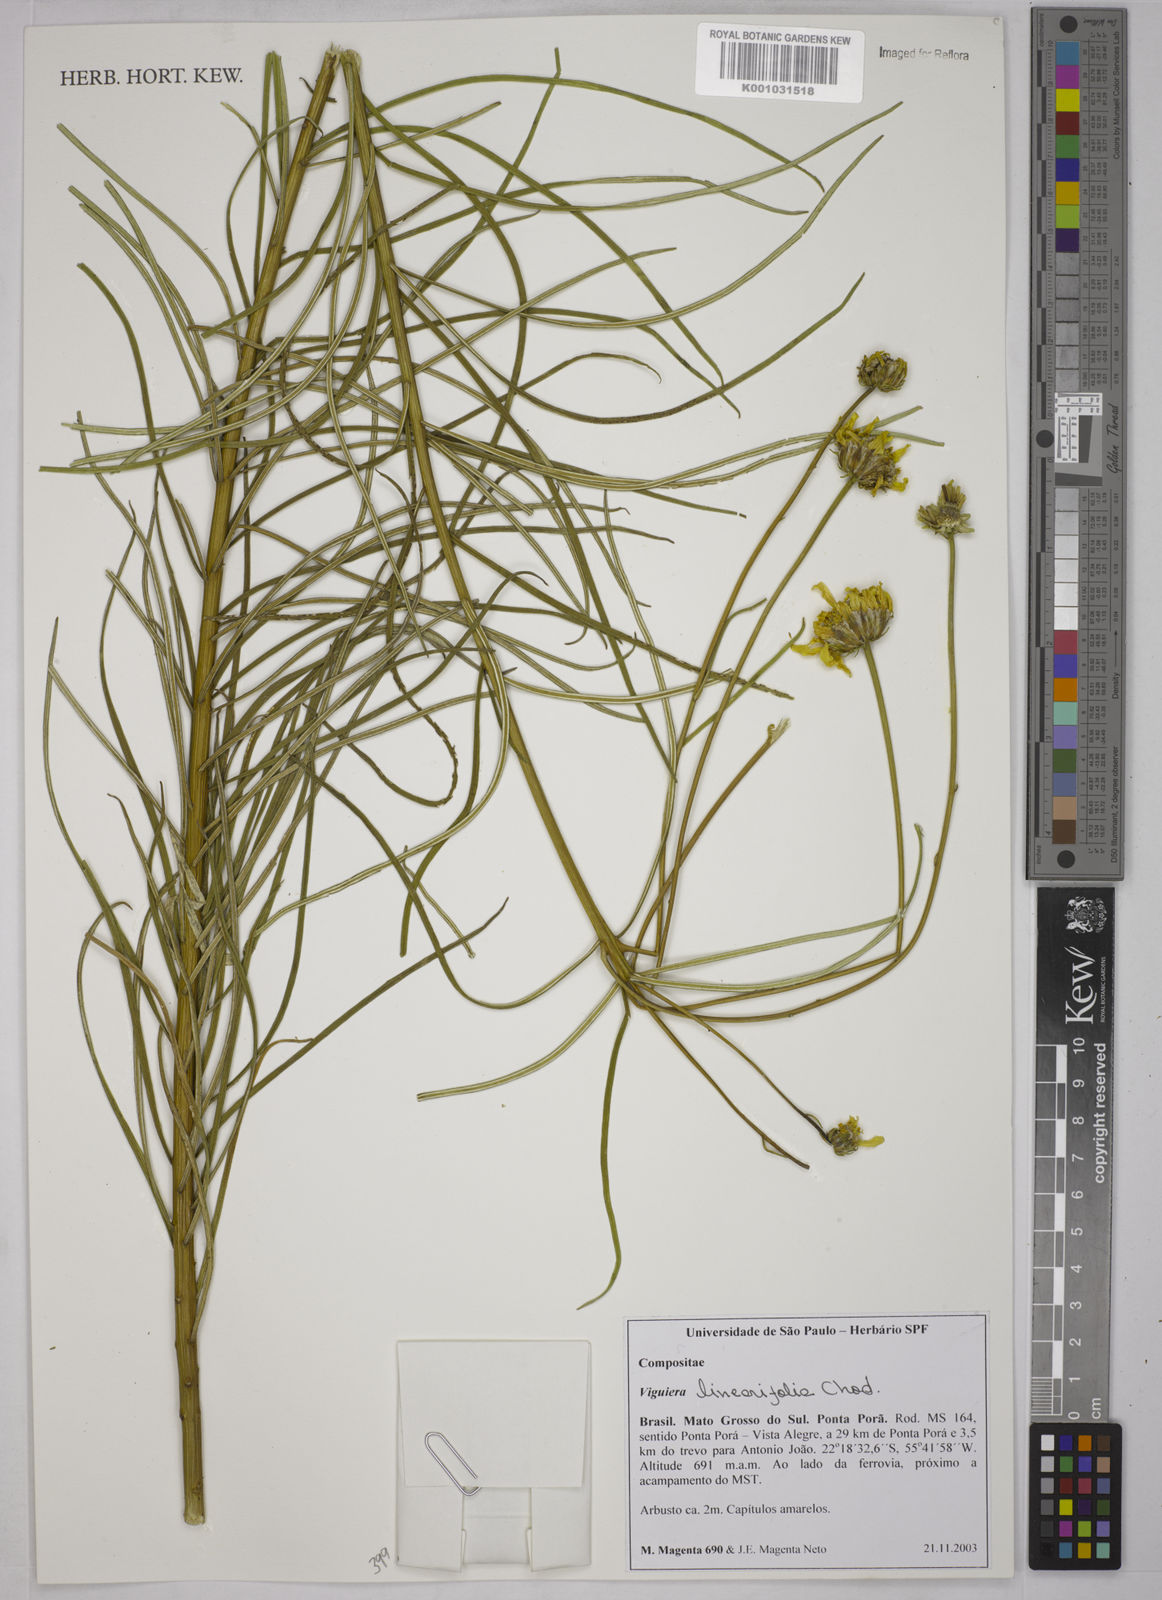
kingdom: Plantae
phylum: Tracheophyta
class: Magnoliopsida
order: Asterales
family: Asteraceae
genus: Aldama
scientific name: Aldama linearifolia
